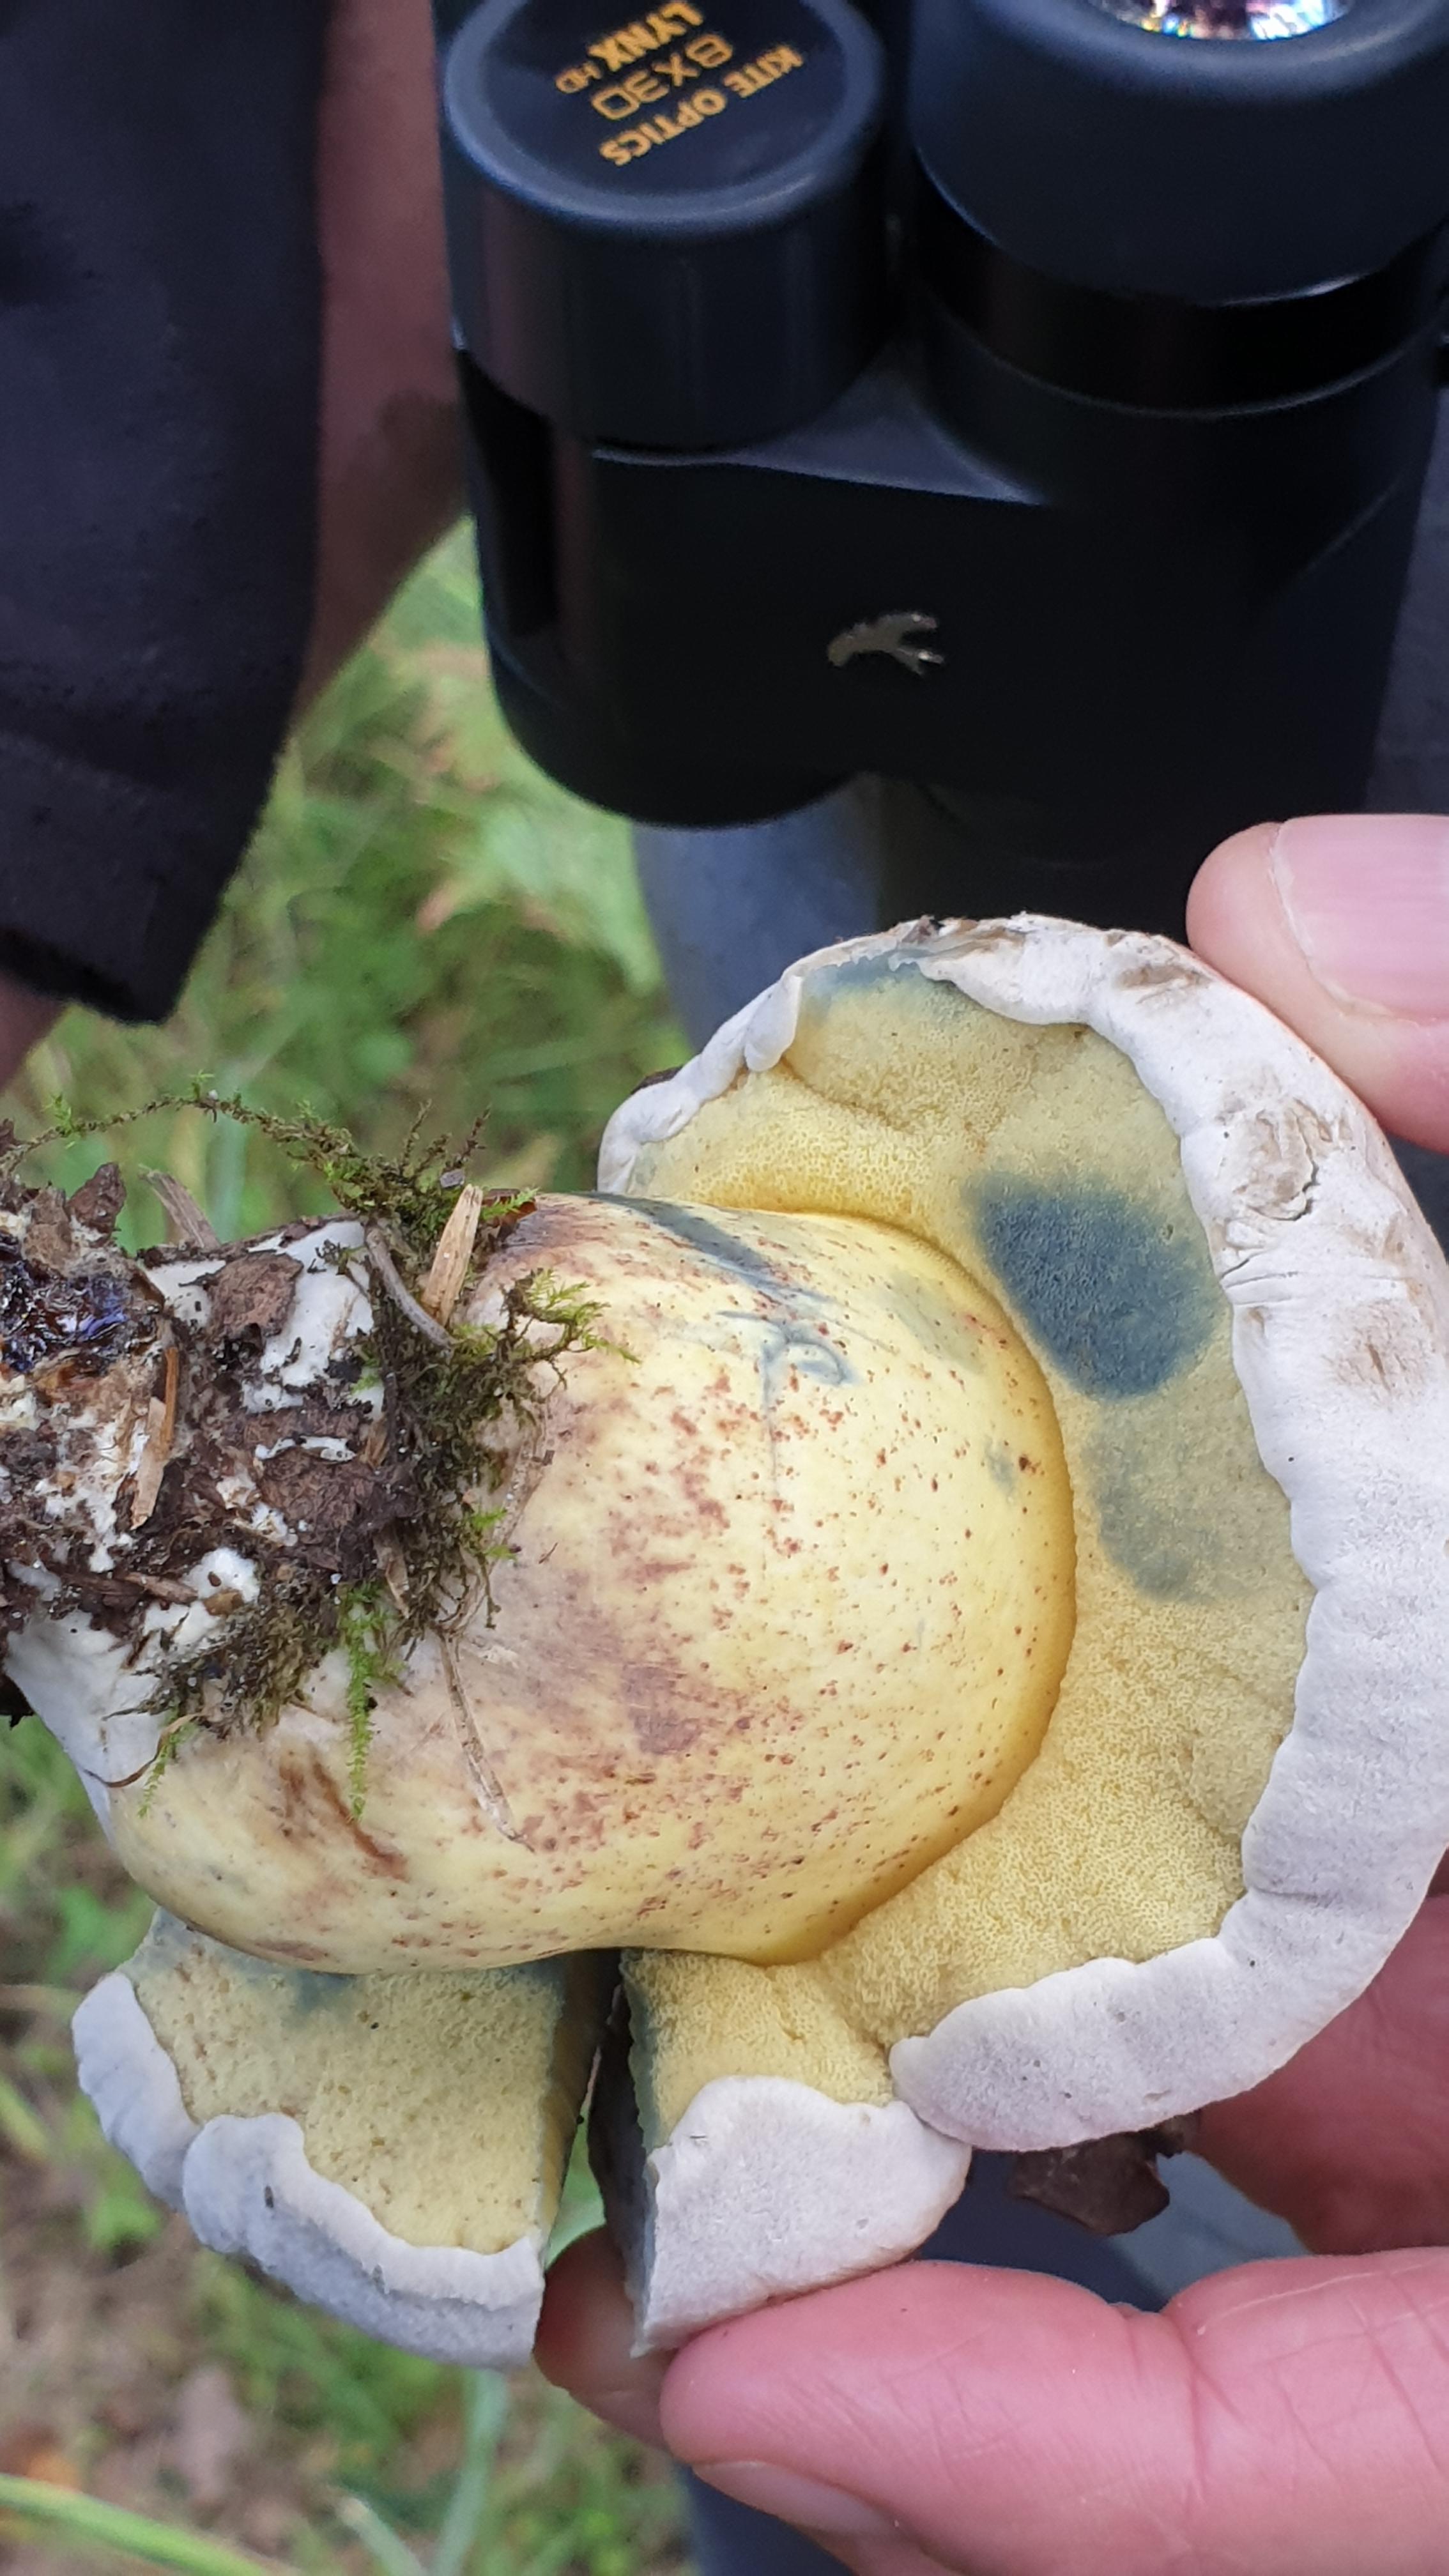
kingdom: Fungi
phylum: Basidiomycota
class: Agaricomycetes
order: Boletales
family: Boletaceae
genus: Caloboletus
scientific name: Caloboletus radicans
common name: rod-rørhat
